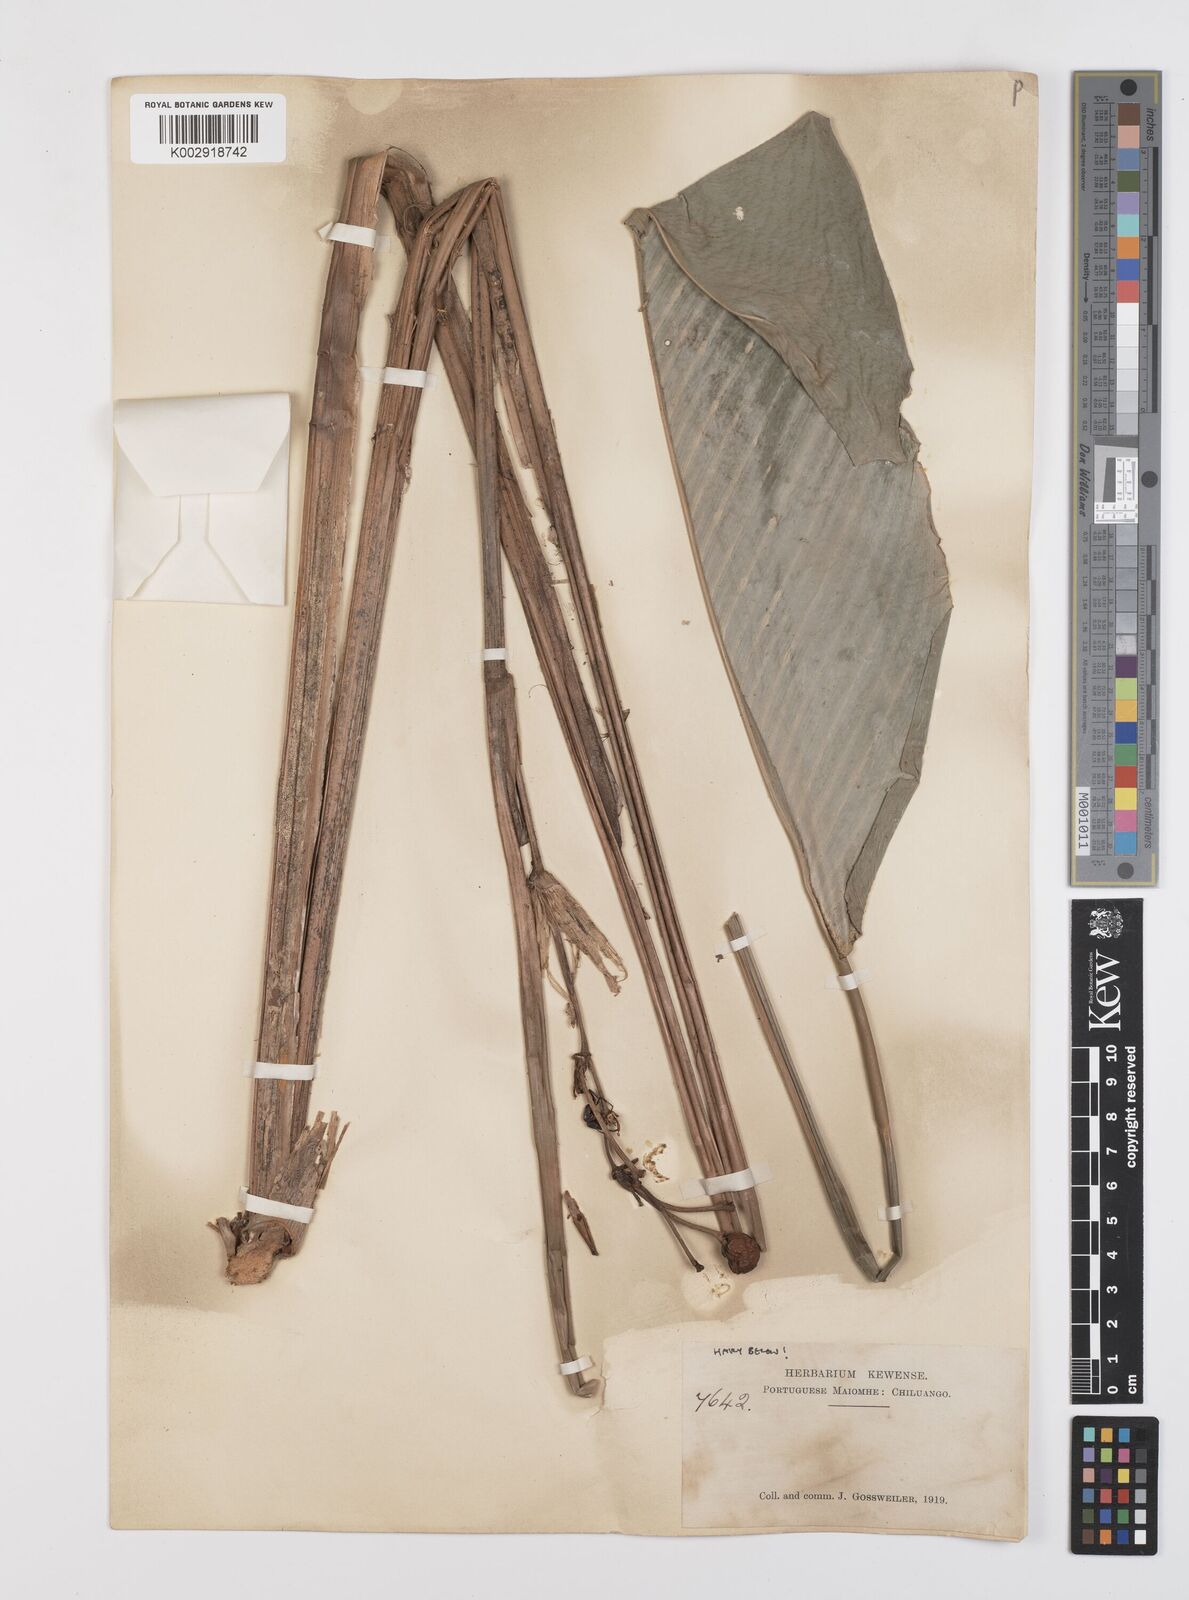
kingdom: Plantae
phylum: Tracheophyta
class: Liliopsida
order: Zingiberales
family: Marantaceae
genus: Sarcophrynium
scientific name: Sarcophrynium prionogonium
